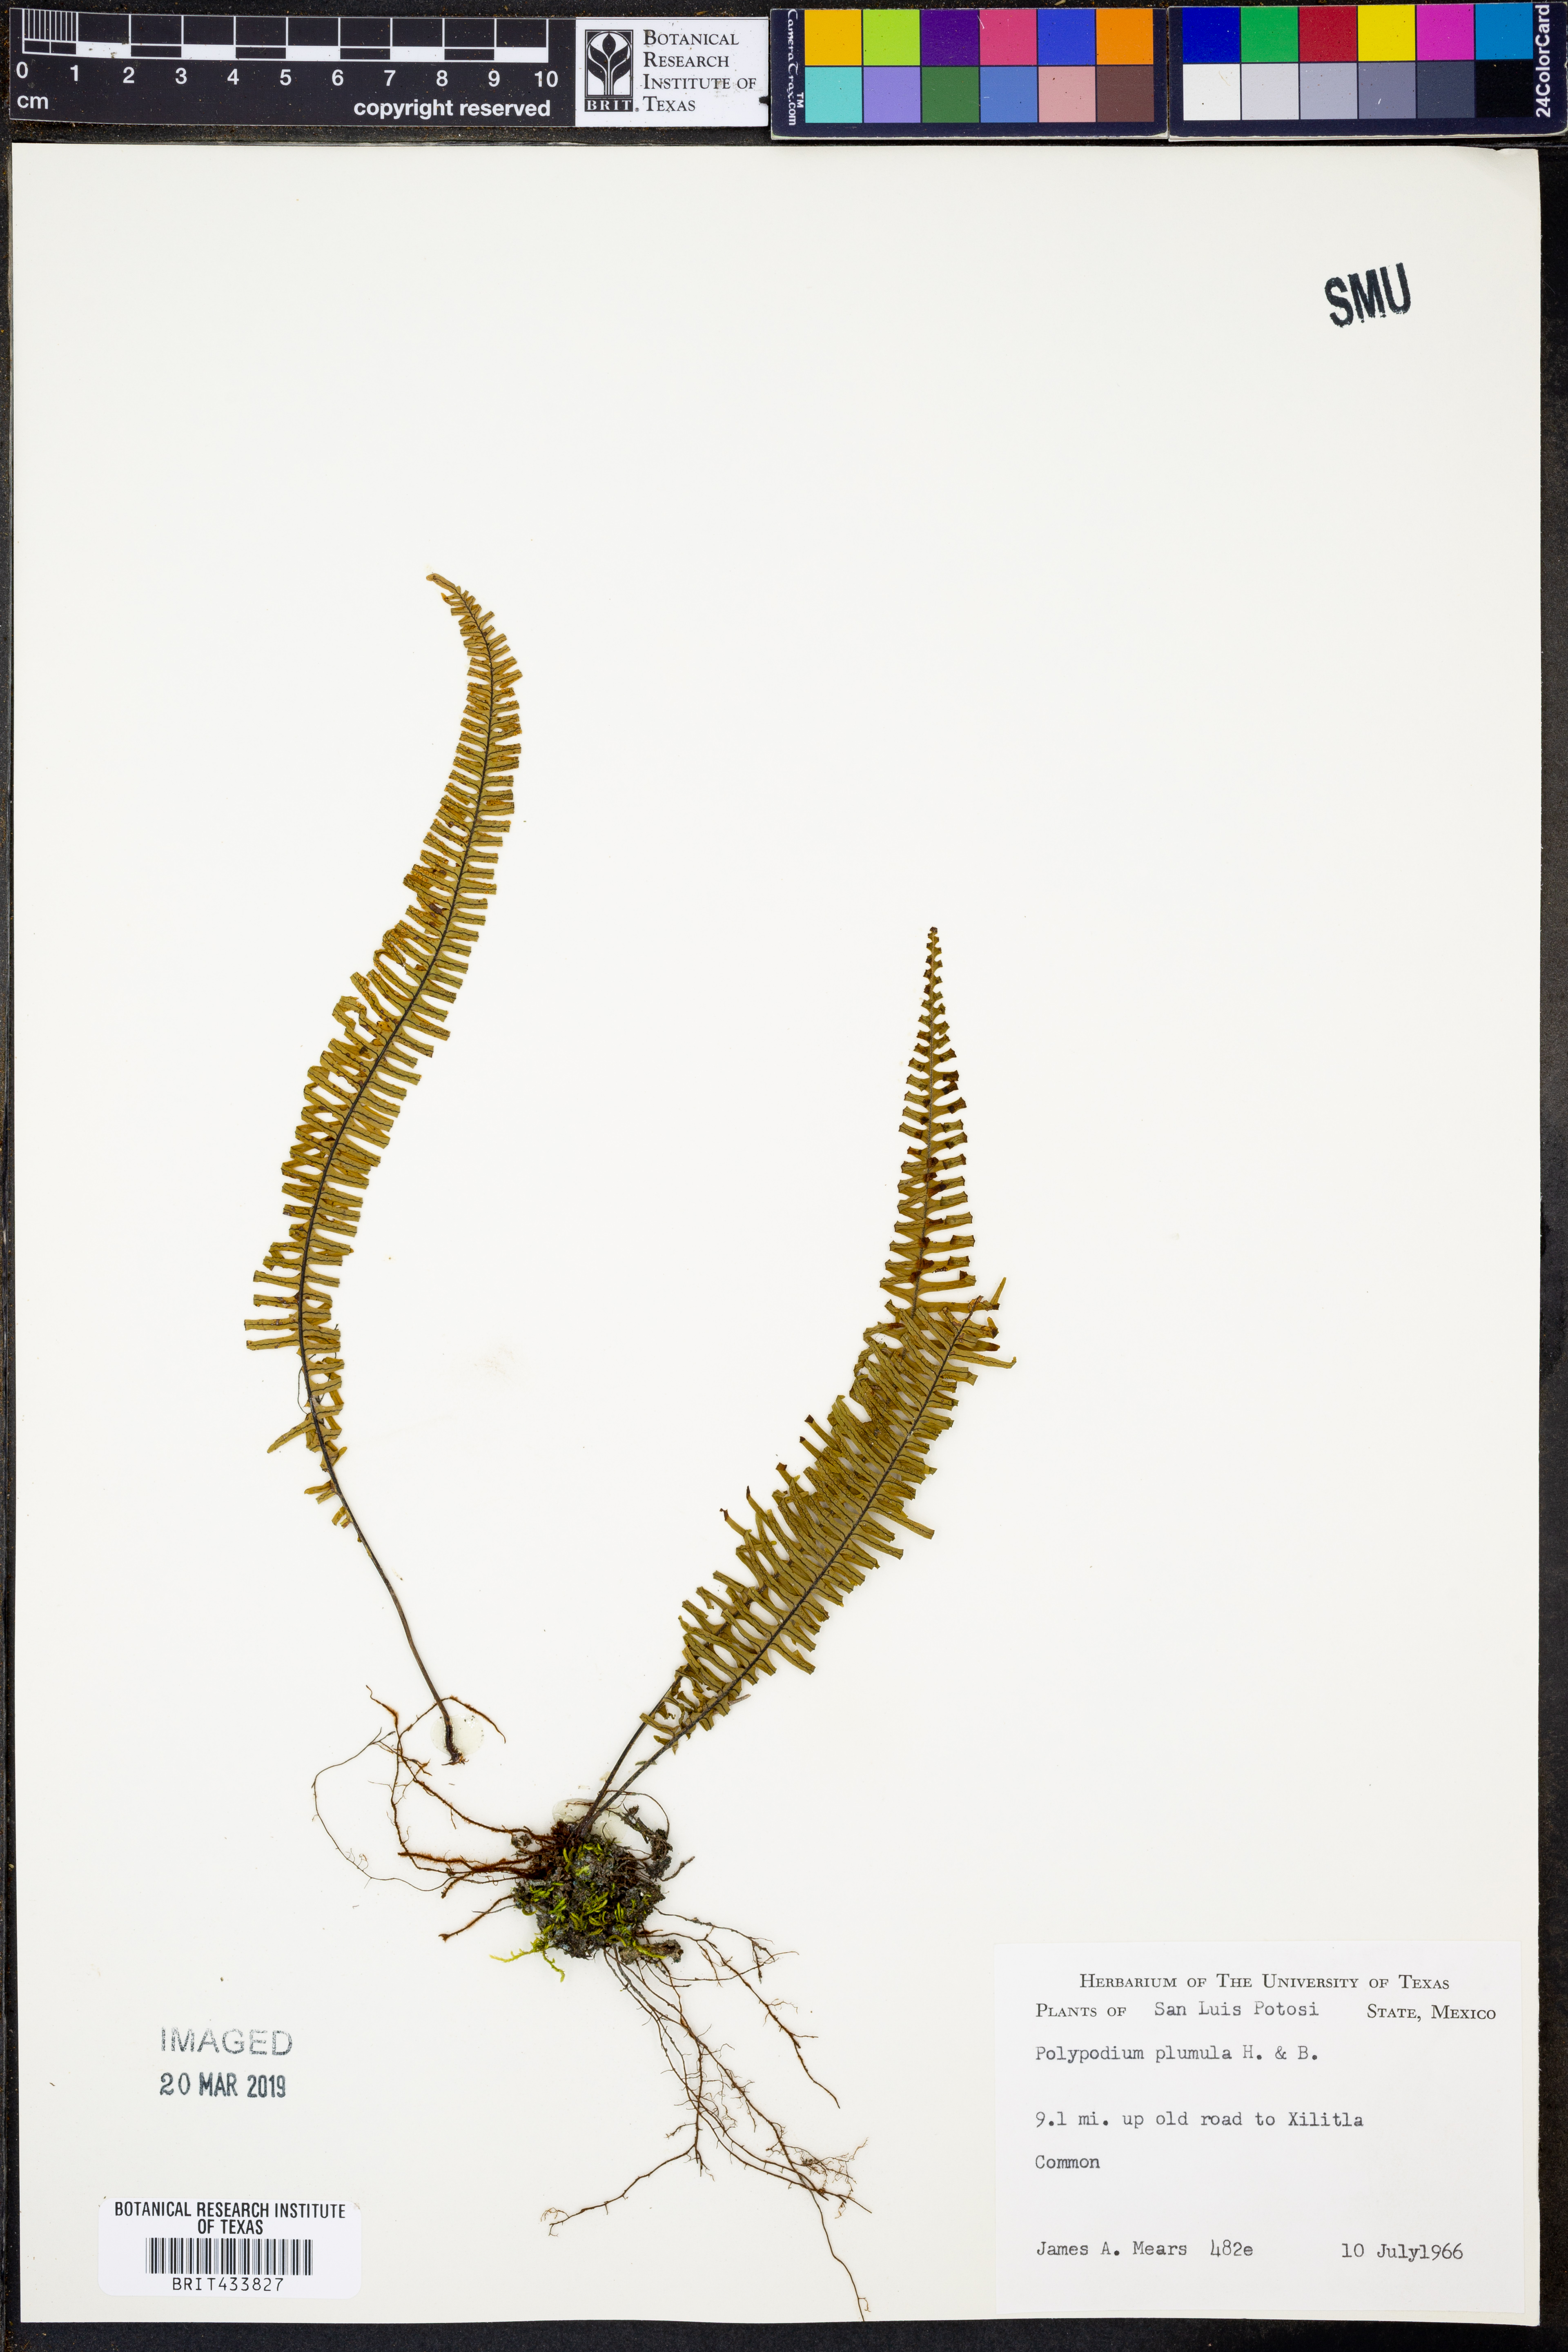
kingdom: Plantae
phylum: Tracheophyta
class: Polypodiopsida
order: Polypodiales
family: Polypodiaceae
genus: Pecluma
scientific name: Pecluma plumula
